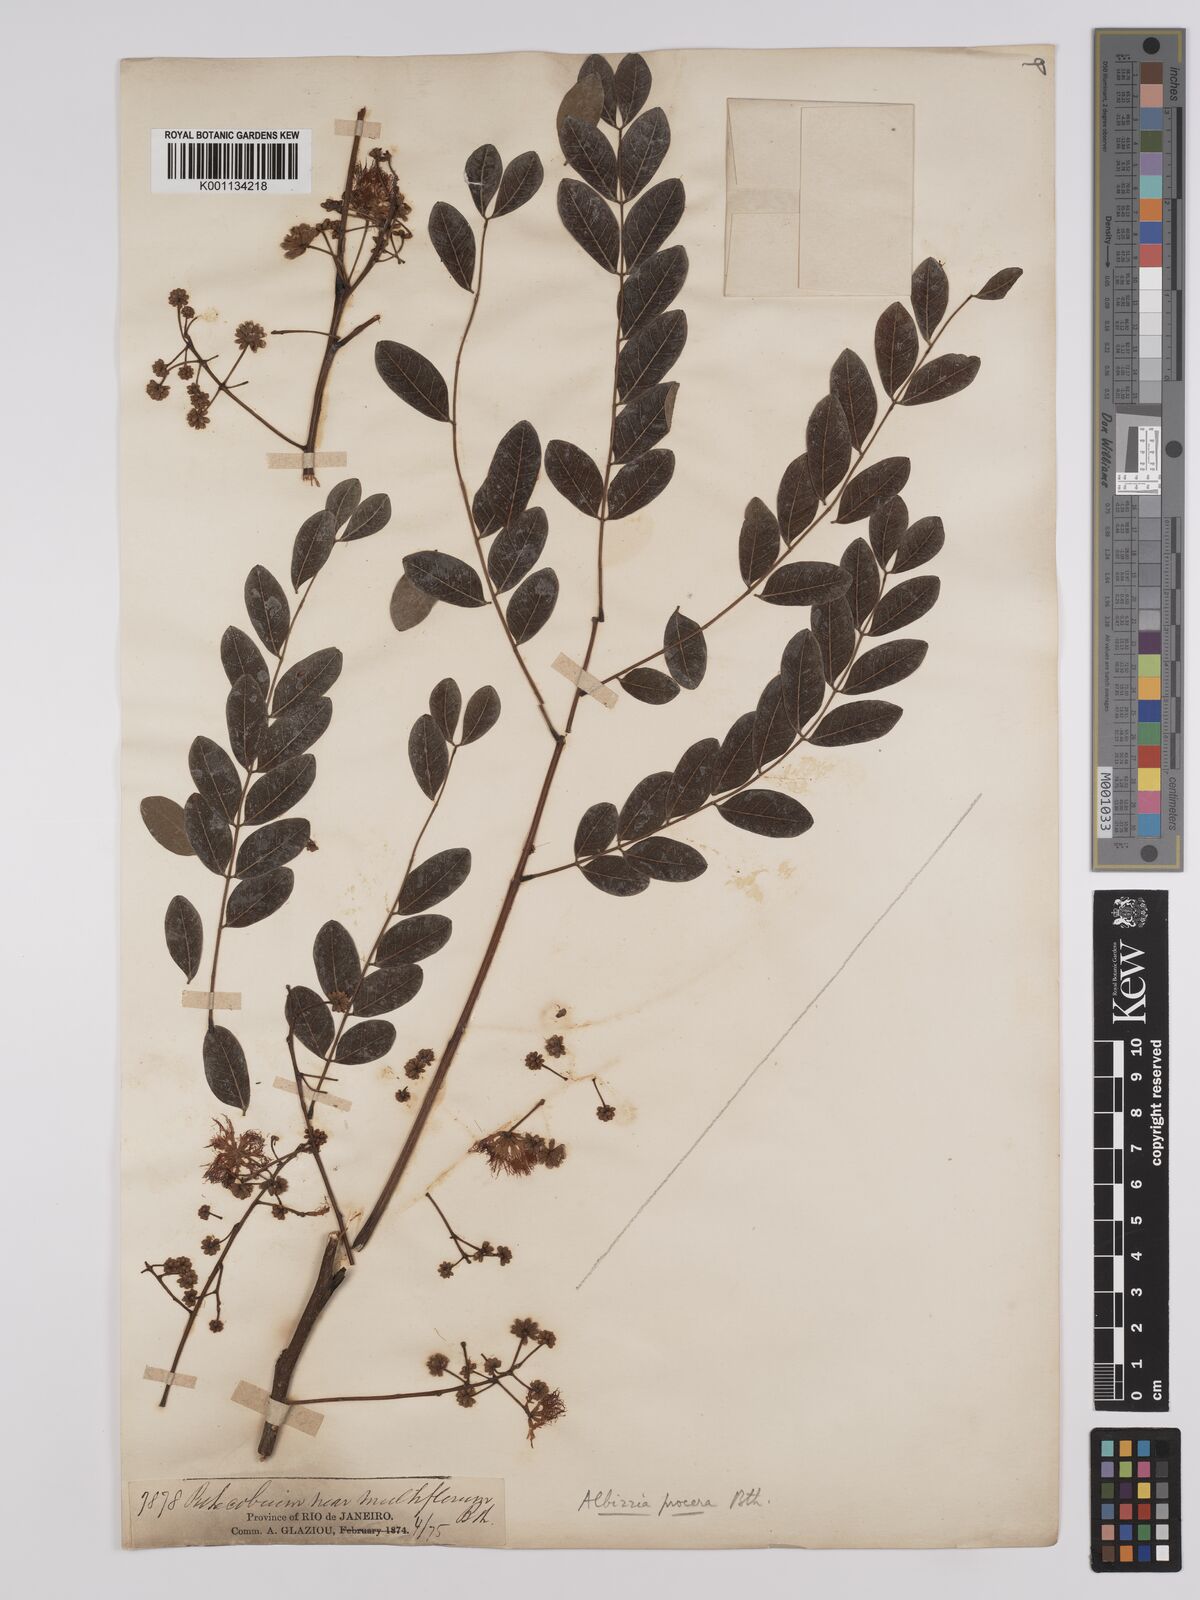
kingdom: Plantae
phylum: Tracheophyta
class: Magnoliopsida
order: Fabales
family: Fabaceae
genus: Albizia
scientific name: Albizia procera
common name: Tall albizia
